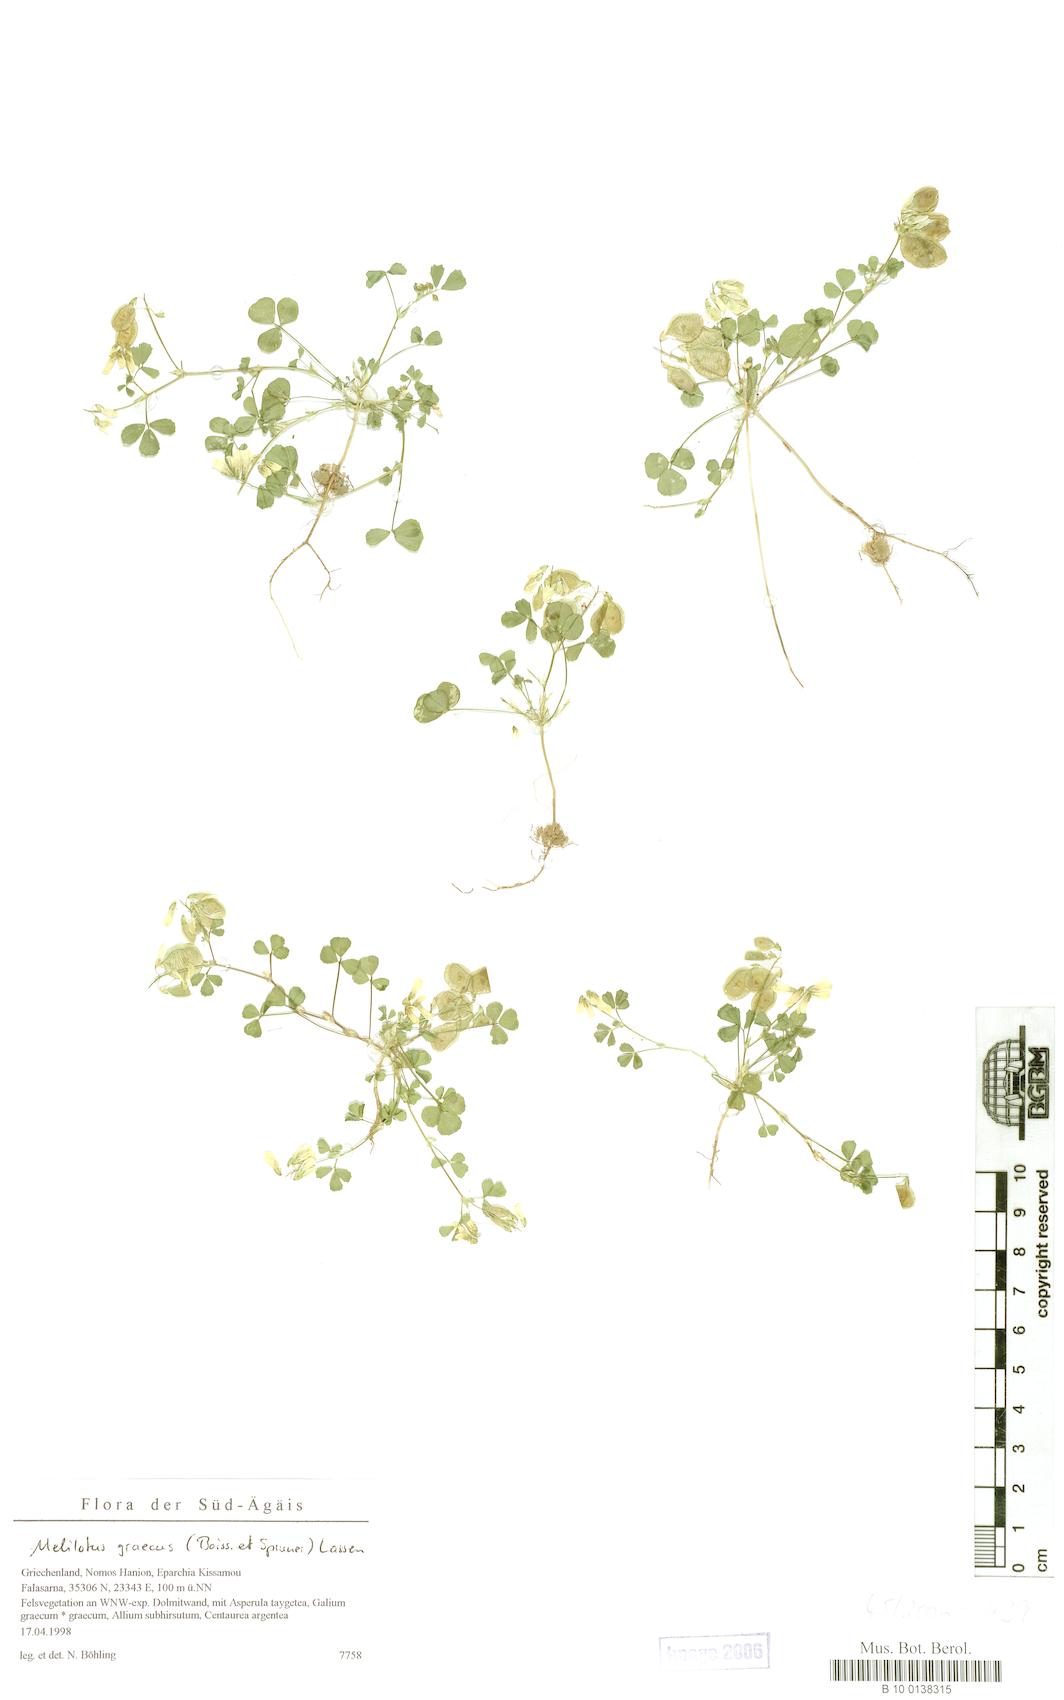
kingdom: Plantae
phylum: Tracheophyta
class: Magnoliopsida
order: Fabales
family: Fabaceae
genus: Trigonella
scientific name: Trigonella graeca
